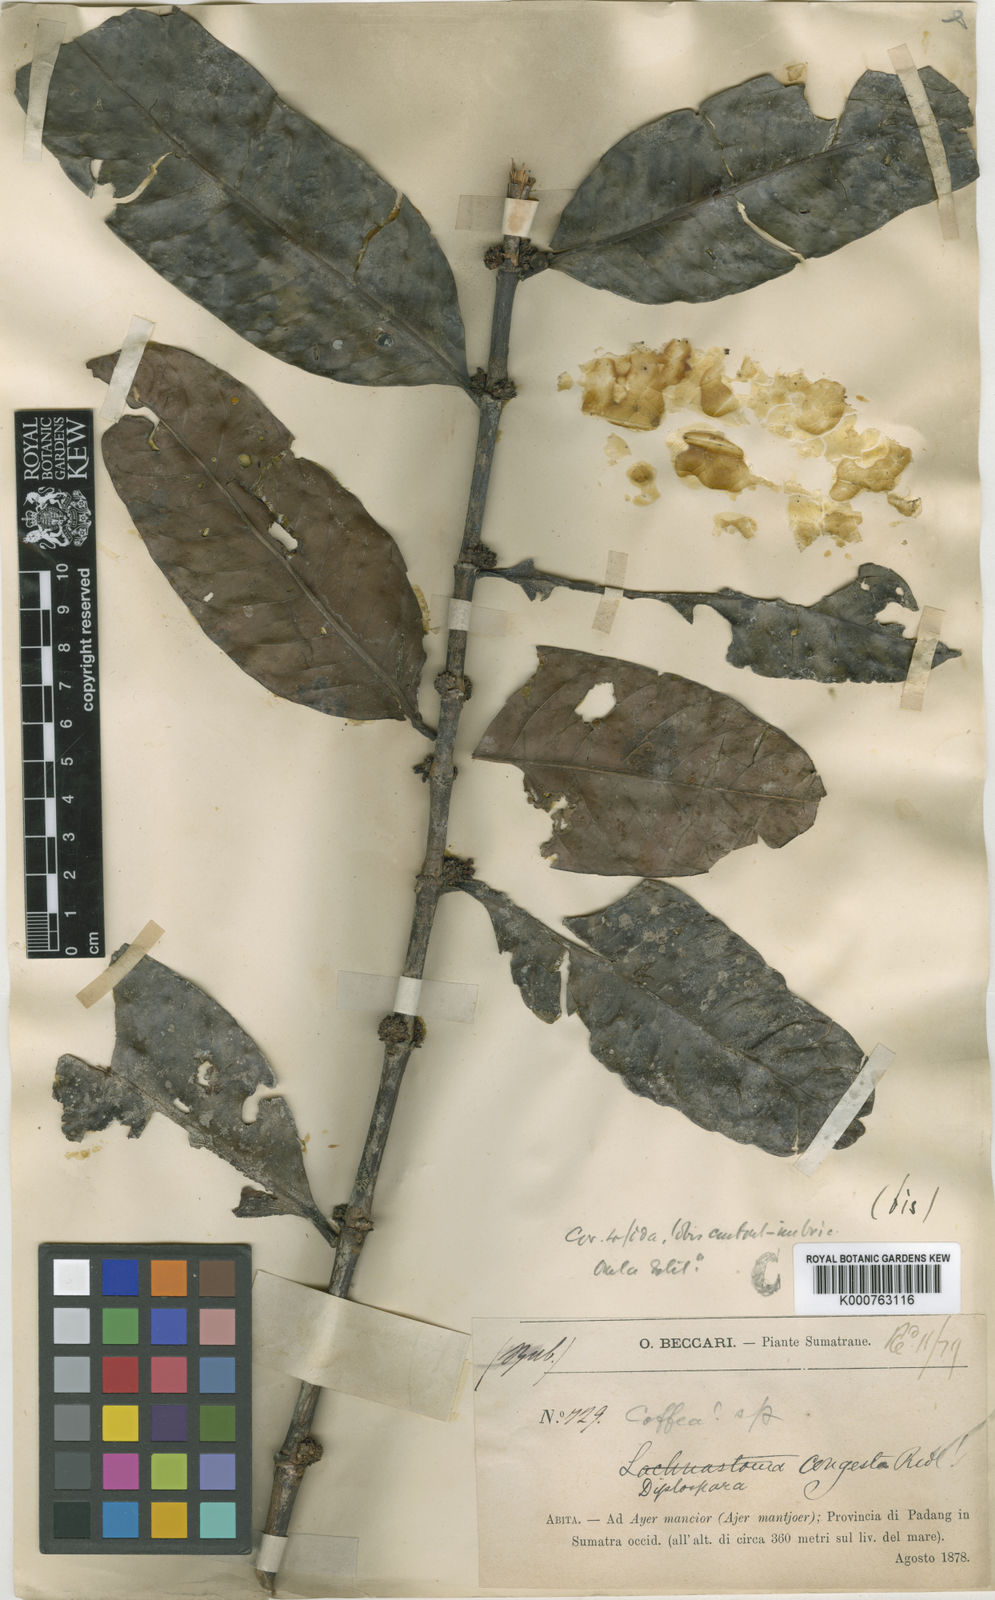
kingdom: Plantae
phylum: Tracheophyta
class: Magnoliopsida
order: Gentianales
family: Rubiaceae
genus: Diplospora
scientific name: Diplospora
